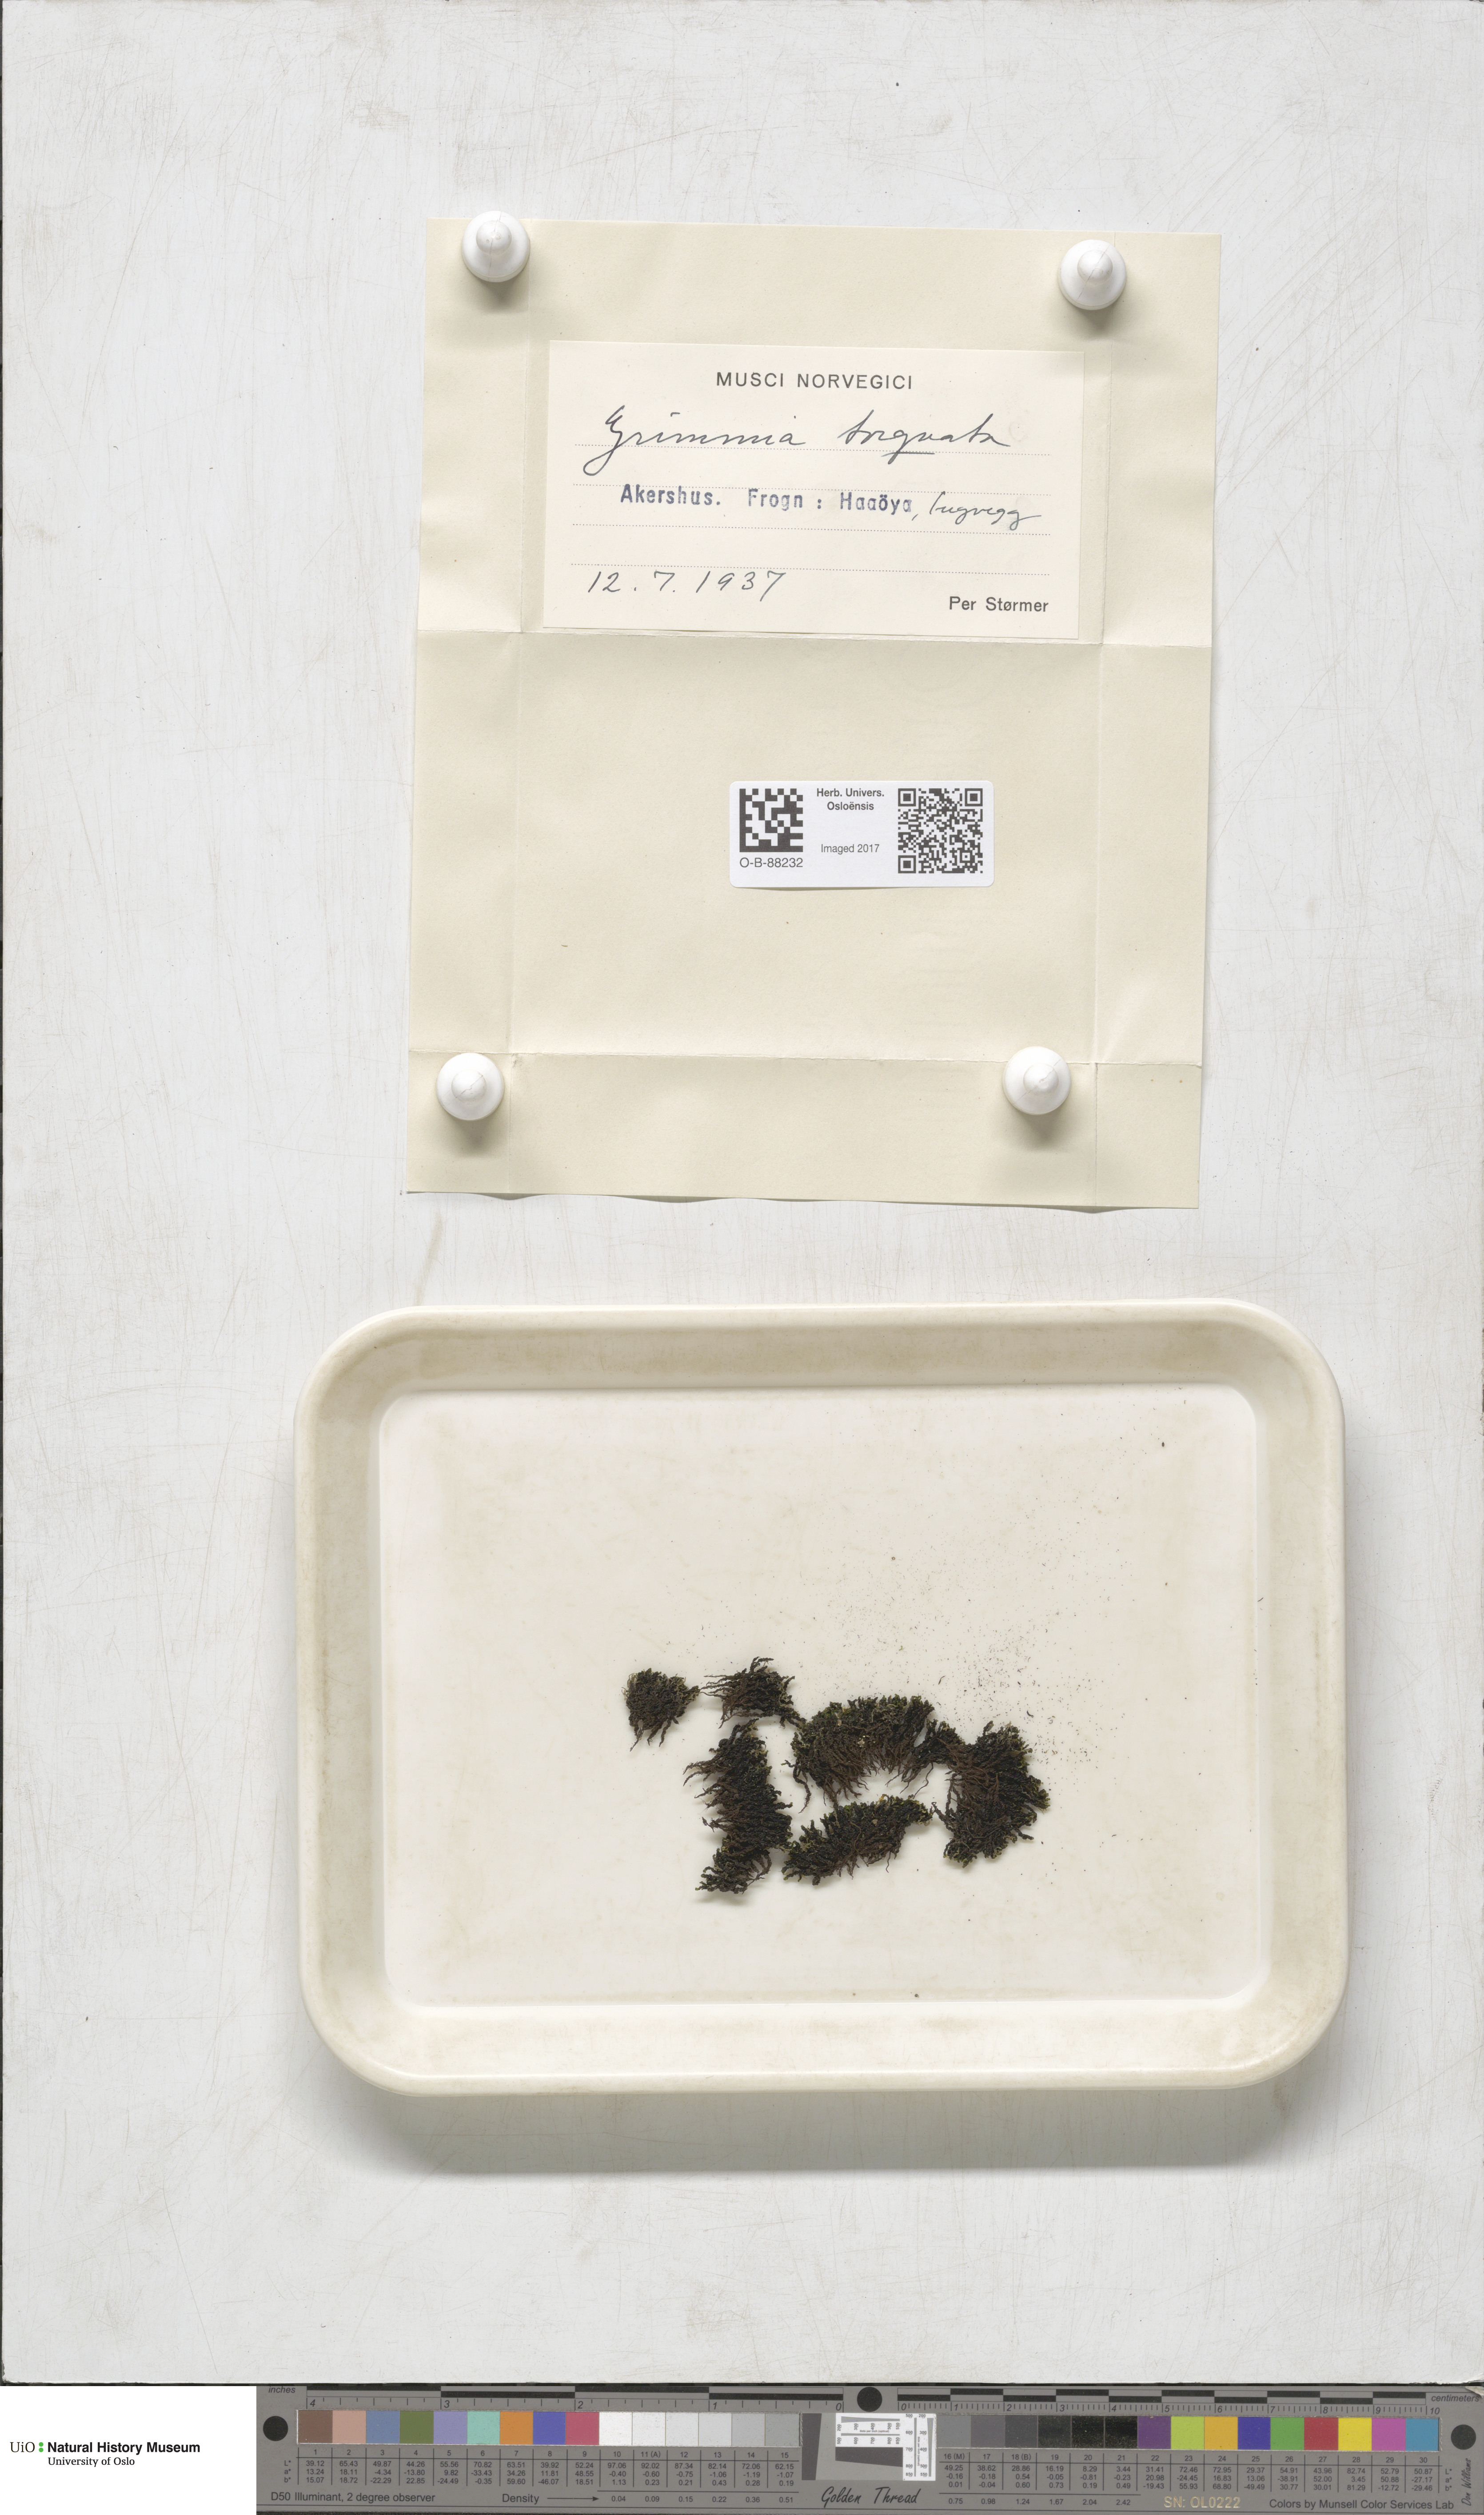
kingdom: Plantae
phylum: Bryophyta
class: Bryopsida
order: Grimmiales
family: Grimmiaceae
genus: Grimmia
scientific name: Grimmia torquata
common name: Twisted grimmia
